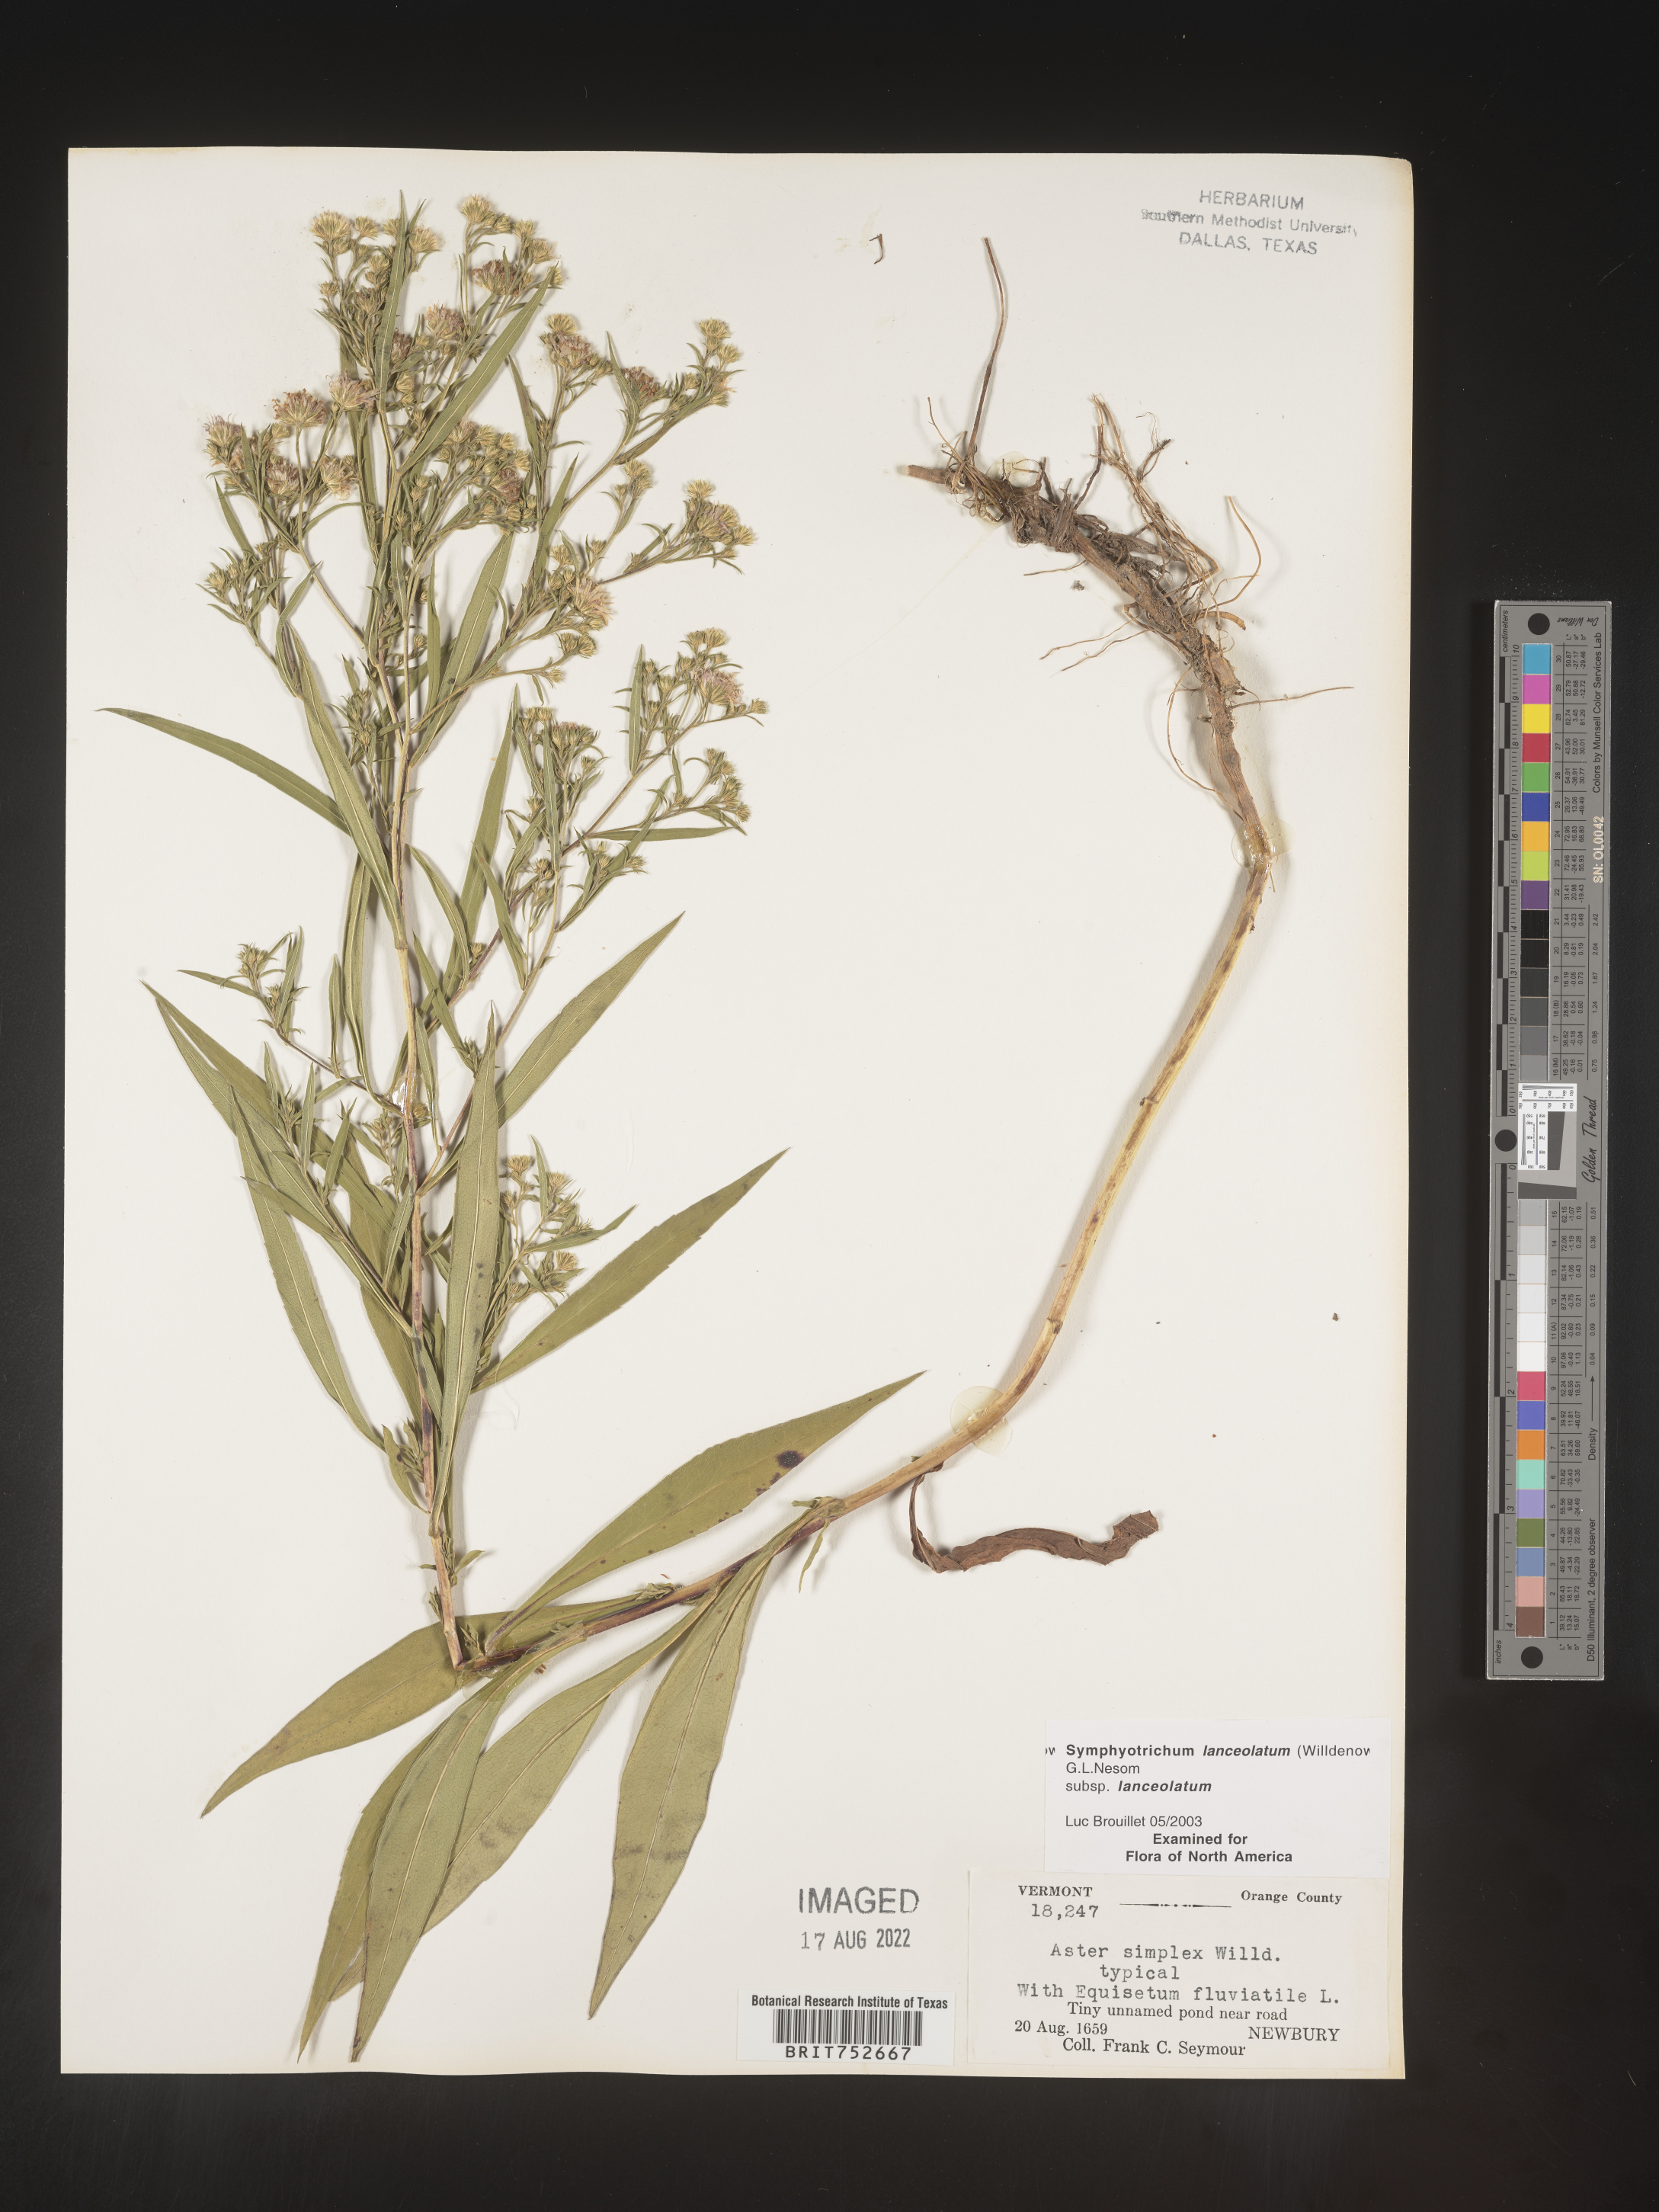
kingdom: Plantae
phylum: Tracheophyta
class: Magnoliopsida
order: Asterales
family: Asteraceae
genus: Symphyotrichum
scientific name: Symphyotrichum lanceolatum
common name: Panicled aster
